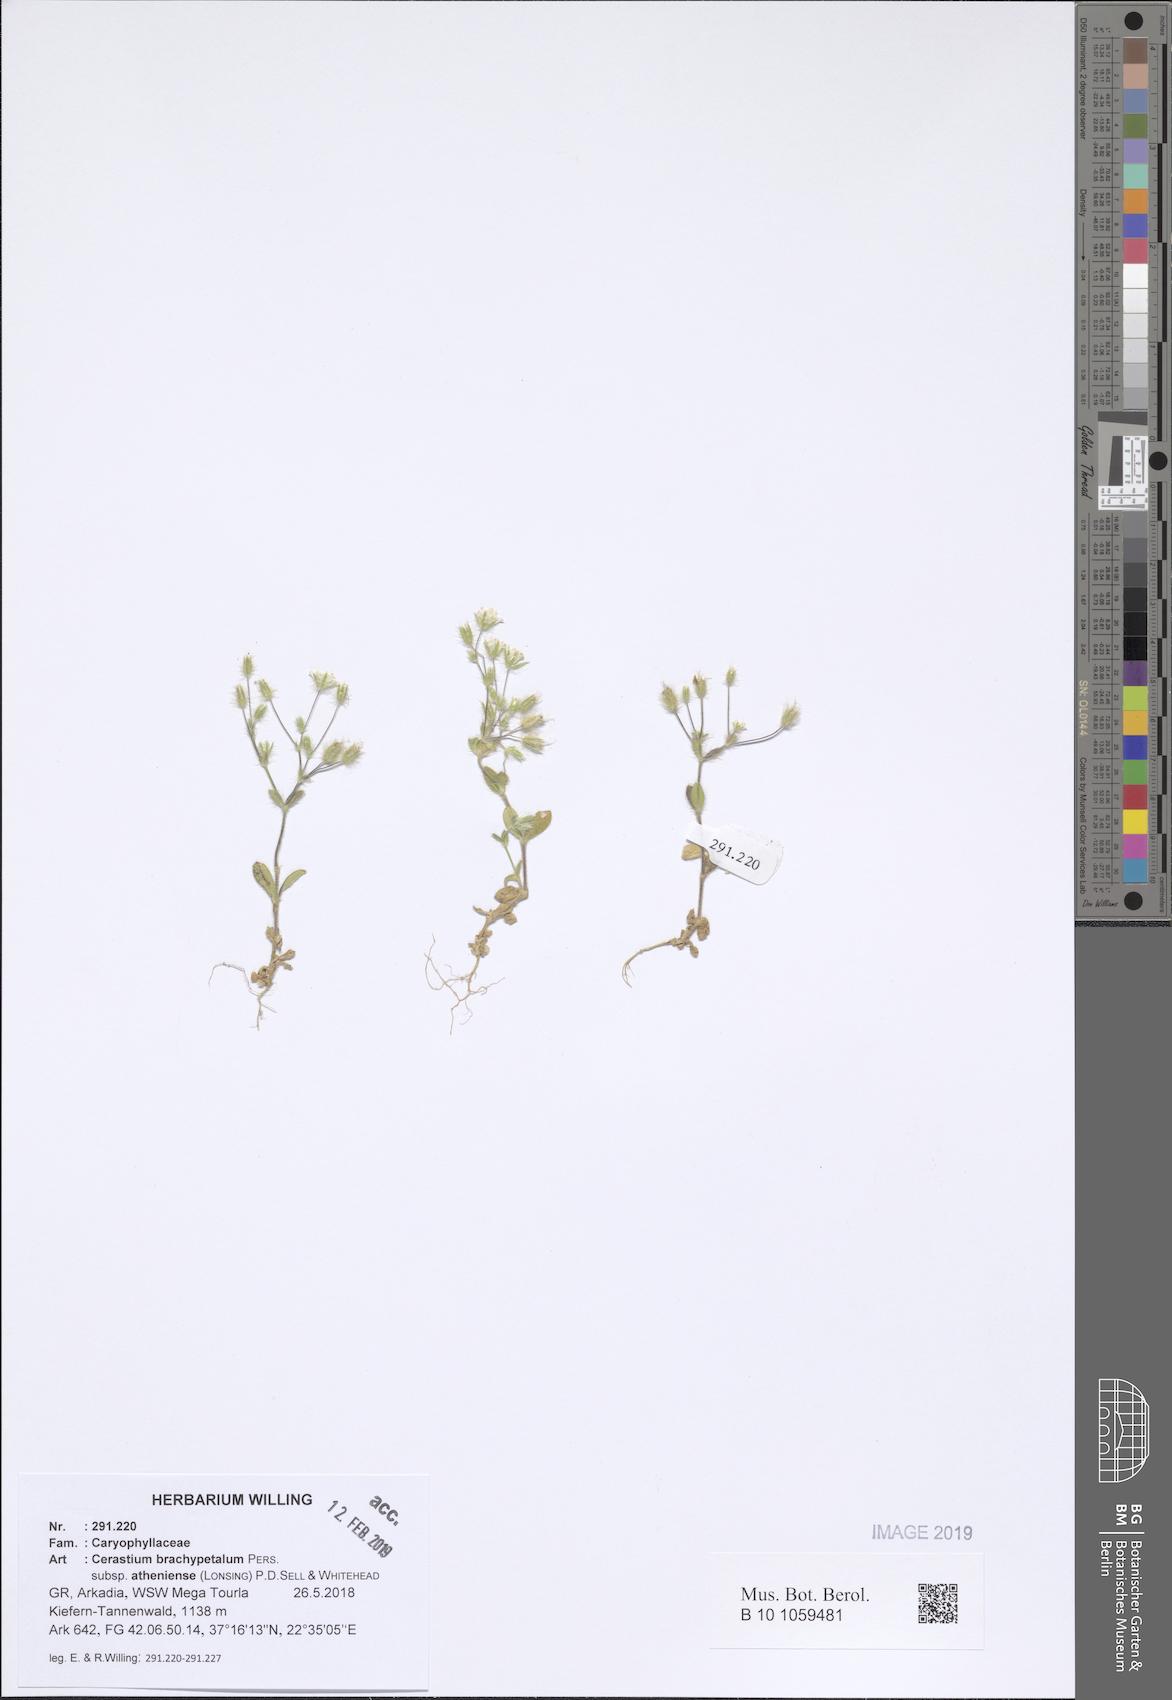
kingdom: Plantae
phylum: Tracheophyta
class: Magnoliopsida
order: Caryophyllales
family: Caryophyllaceae
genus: Cerastium
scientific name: Cerastium brachypetalum
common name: Grey mouse-ear
